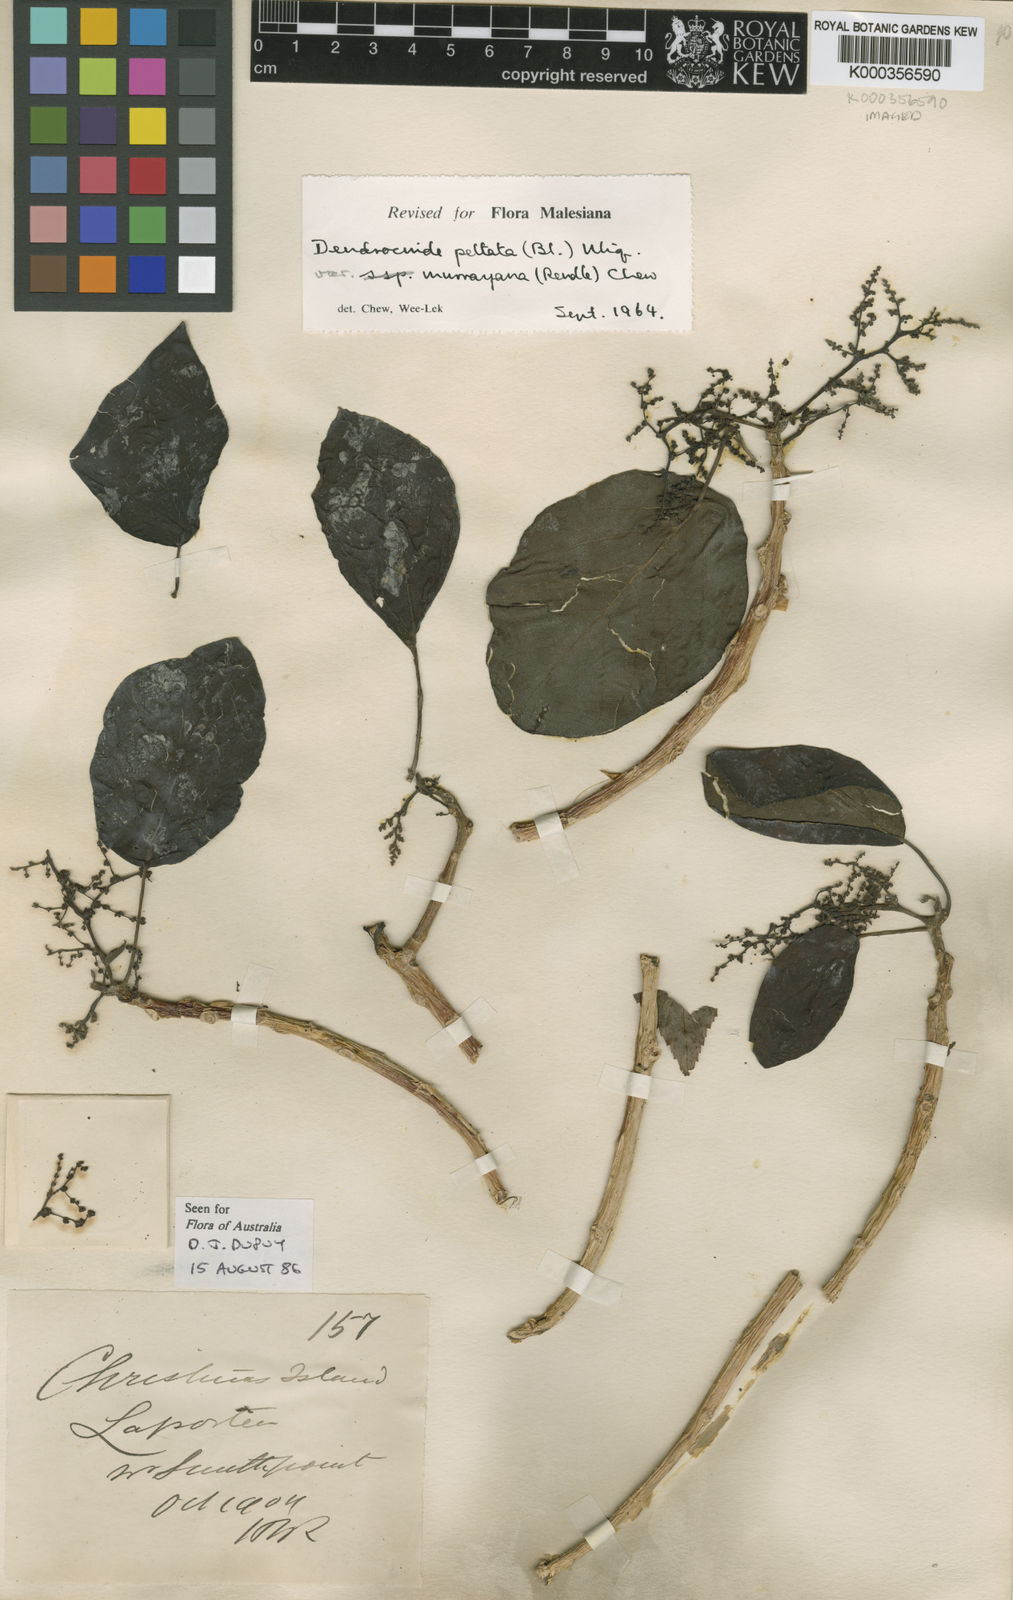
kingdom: Plantae
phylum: Tracheophyta
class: Magnoliopsida
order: Rosales
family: Urticaceae
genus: Dendrocnide
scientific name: Dendrocnide peltata
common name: Stinging tree
